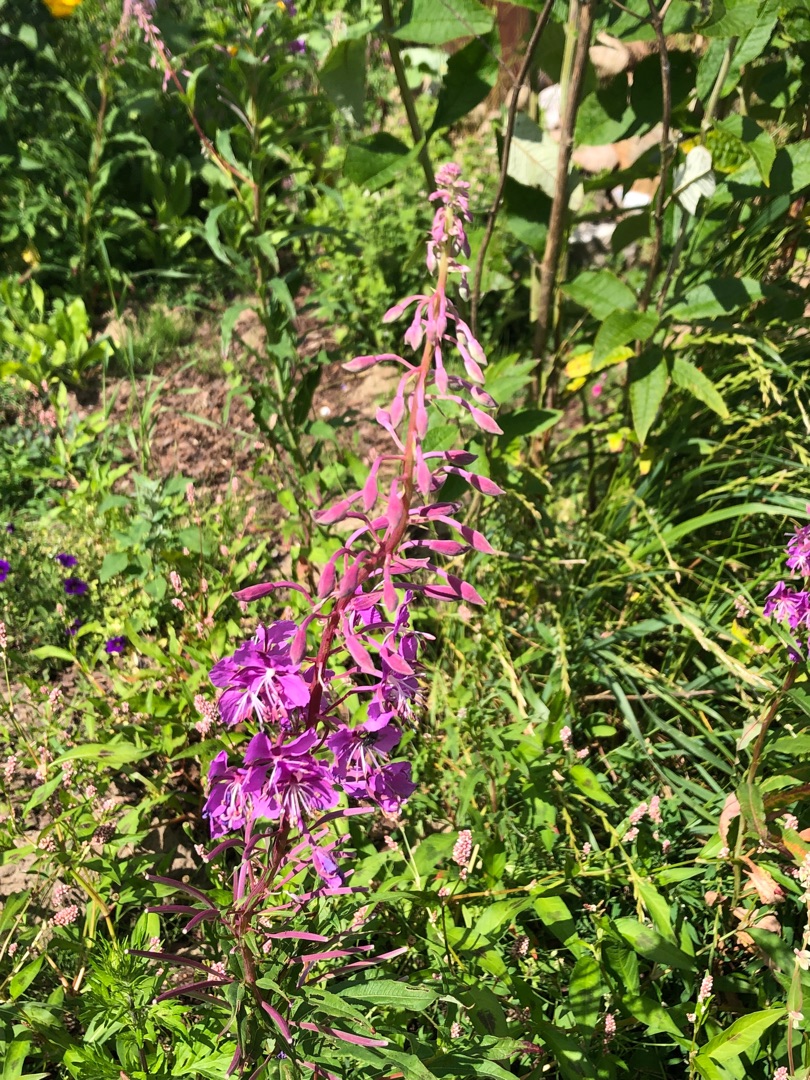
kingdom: Plantae
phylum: Tracheophyta
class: Magnoliopsida
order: Myrtales
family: Onagraceae
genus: Chamaenerion
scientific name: Chamaenerion angustifolium
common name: Gederams
